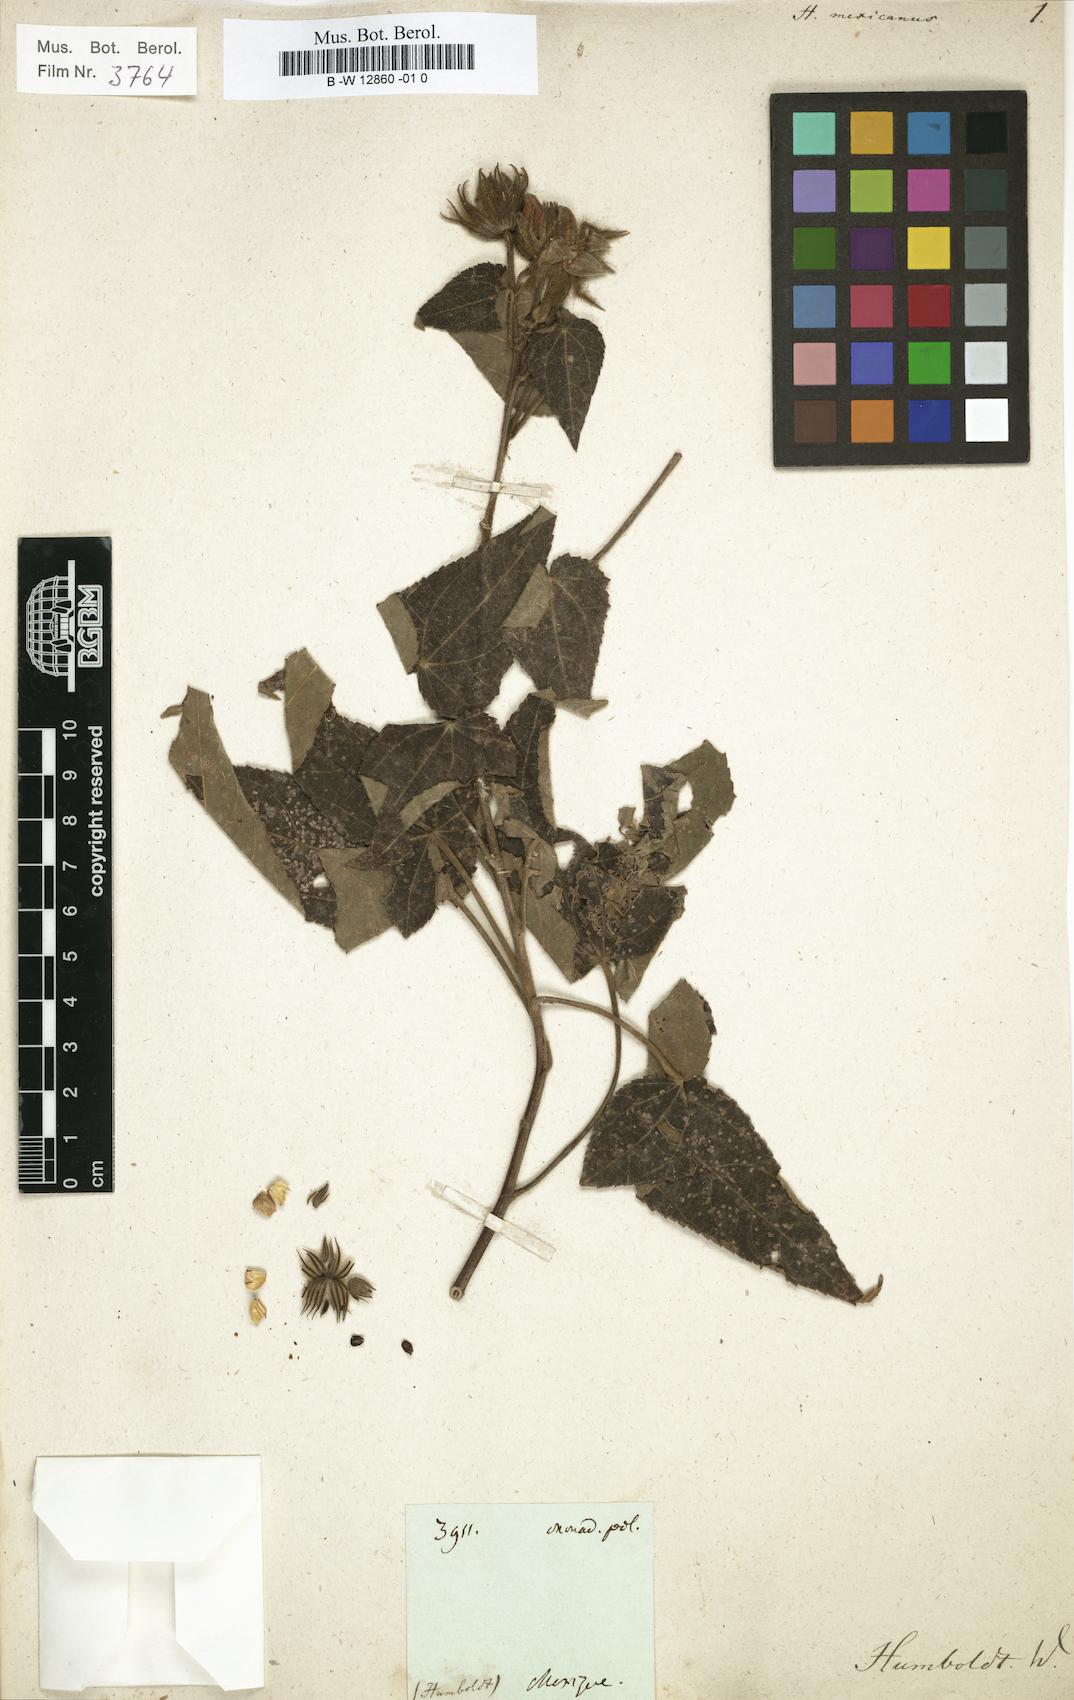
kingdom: Plantae
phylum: Tracheophyta
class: Magnoliopsida
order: Malvales
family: Malvaceae
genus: Hibiscus
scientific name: Hibiscus
